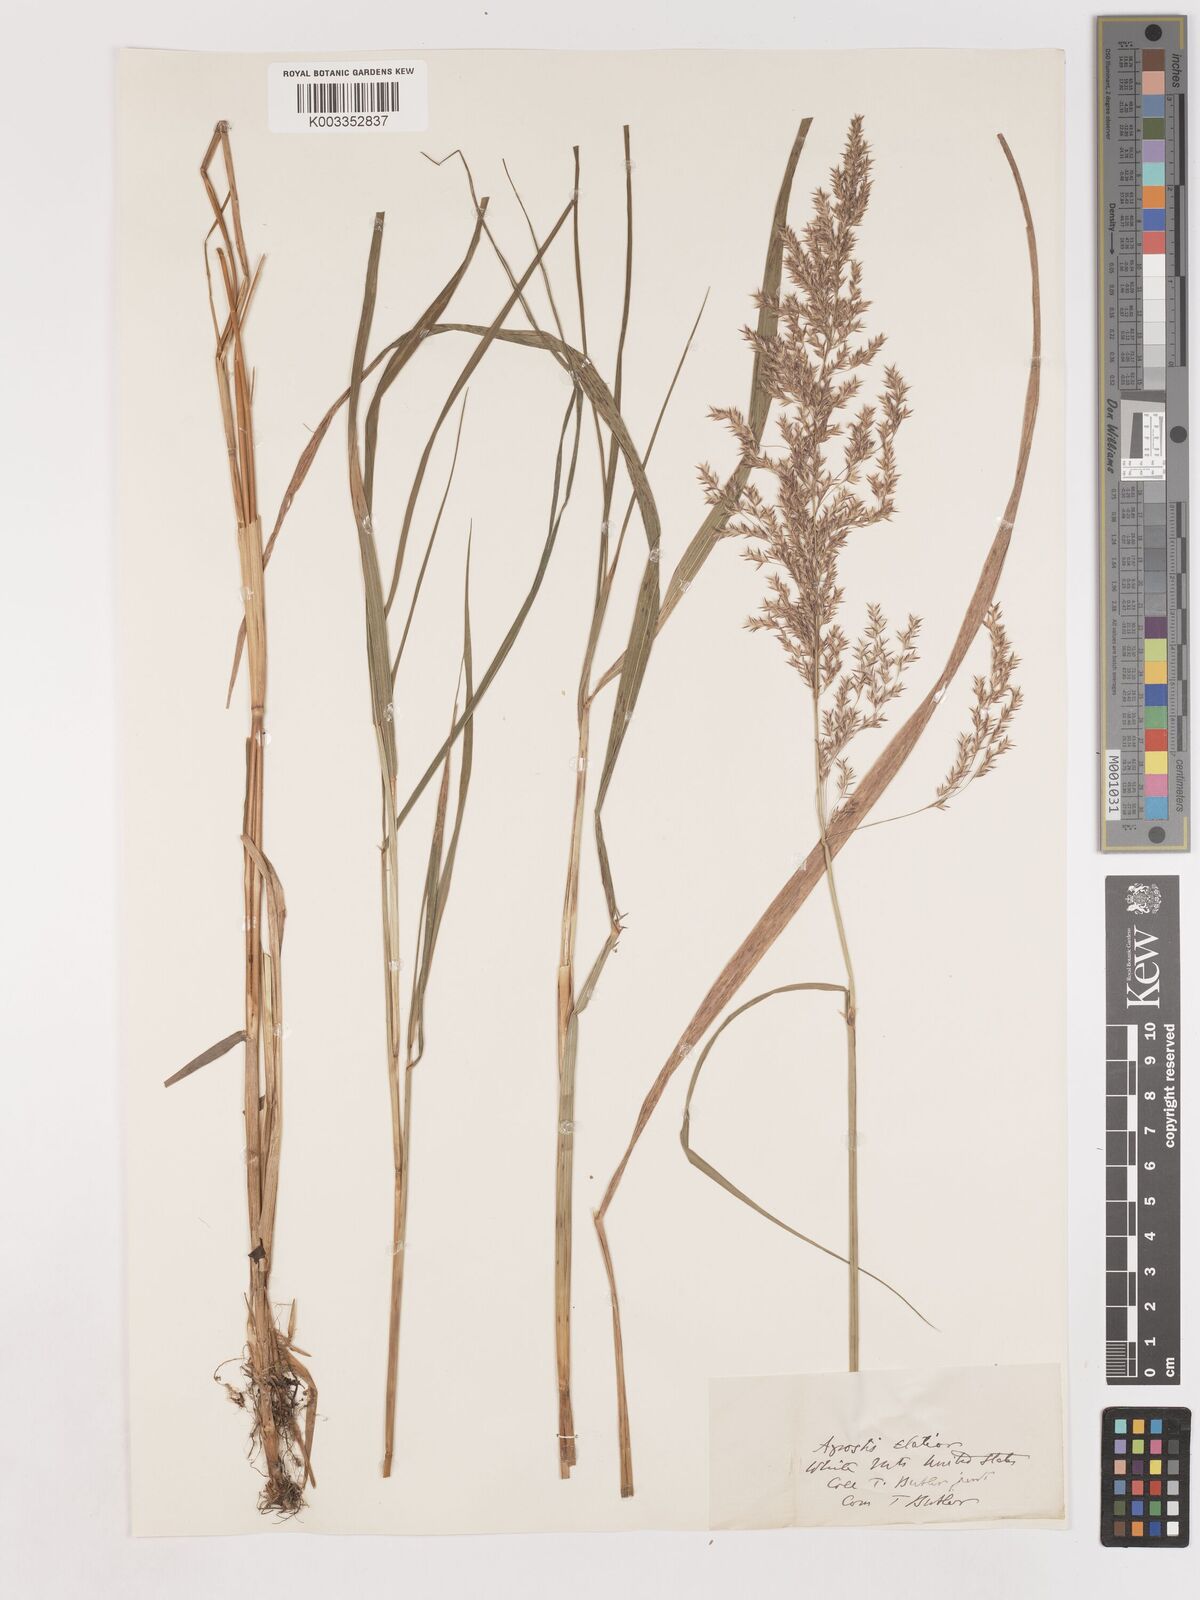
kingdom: Plantae
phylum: Tracheophyta
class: Liliopsida
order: Poales
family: Poaceae
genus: Calamagrostis
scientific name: Calamagrostis canadensis
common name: Canada bluejoint
